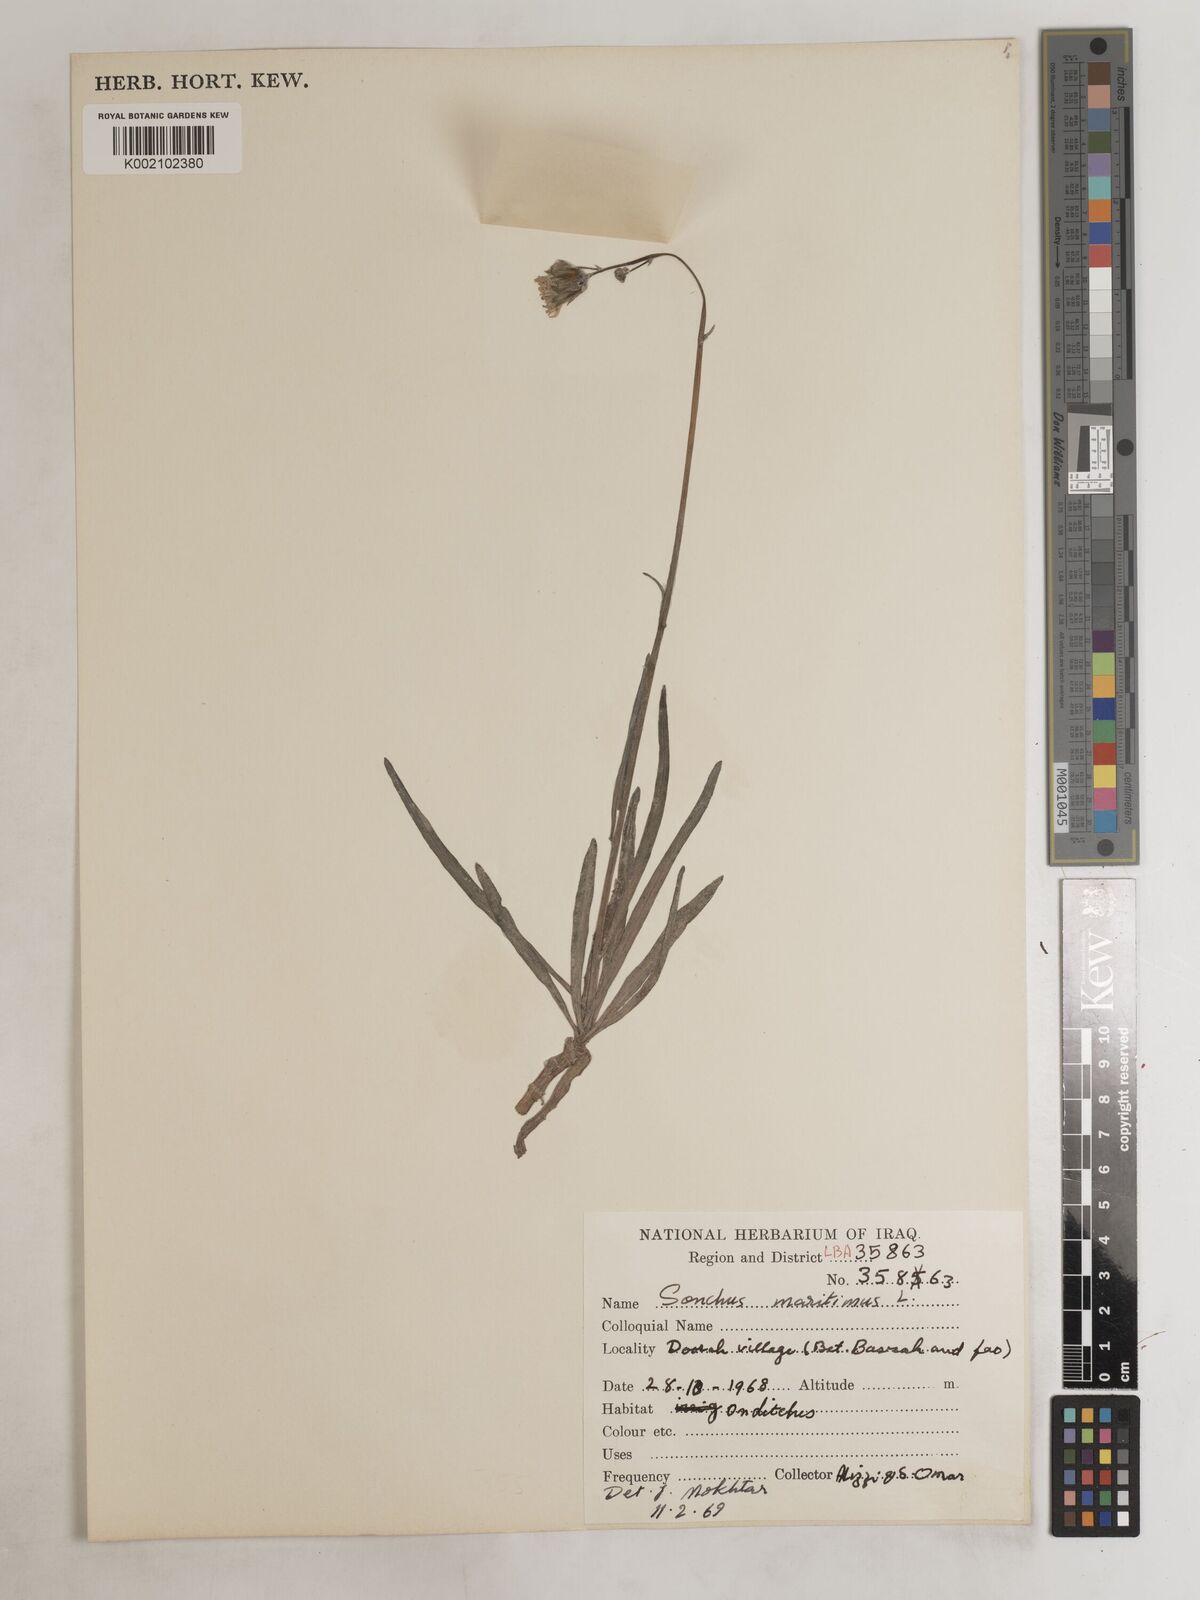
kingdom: Plantae
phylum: Tracheophyta
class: Magnoliopsida
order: Asterales
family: Asteraceae
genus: Sonchus
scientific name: Sonchus maritimus
